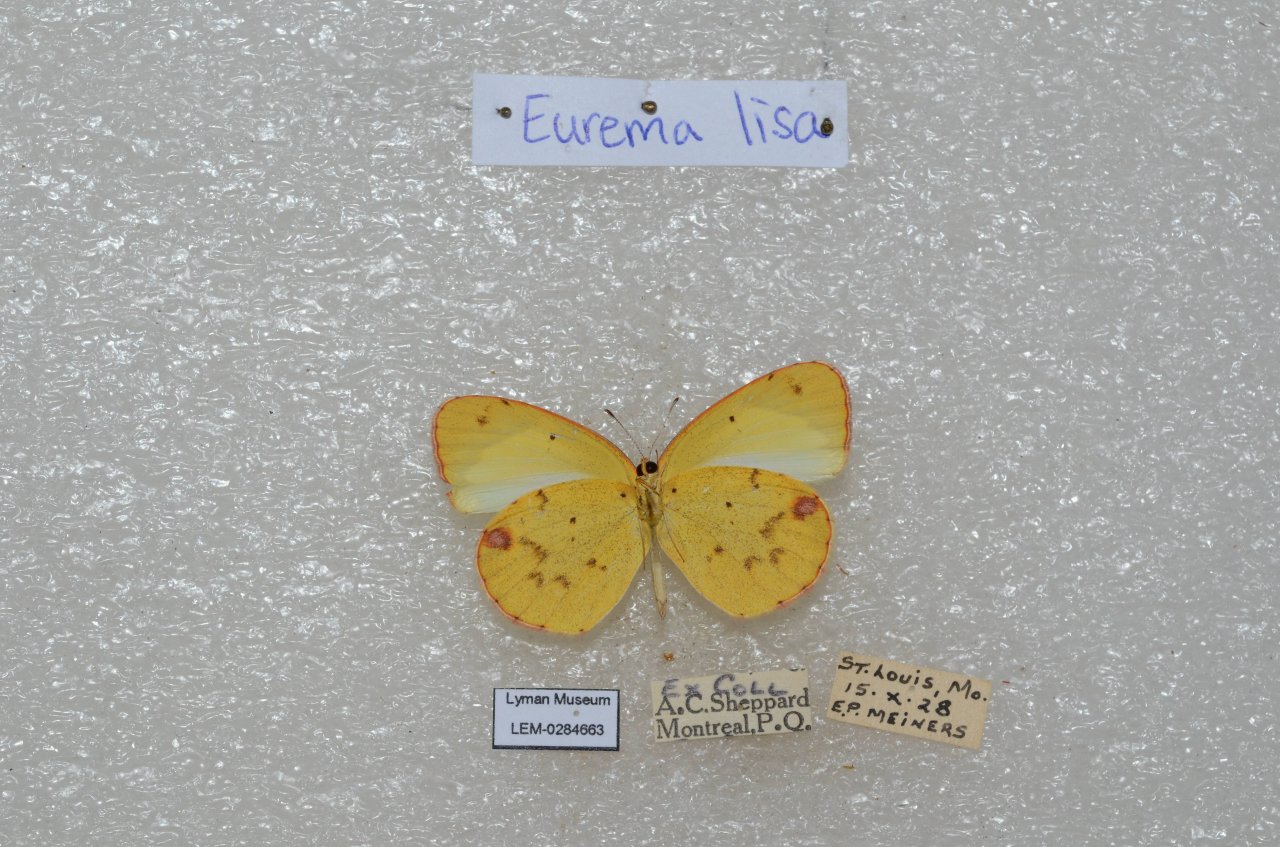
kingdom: Animalia
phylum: Arthropoda
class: Insecta
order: Lepidoptera
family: Pieridae
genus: Pyrisitia
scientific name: Pyrisitia lisa
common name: Little Yellow
